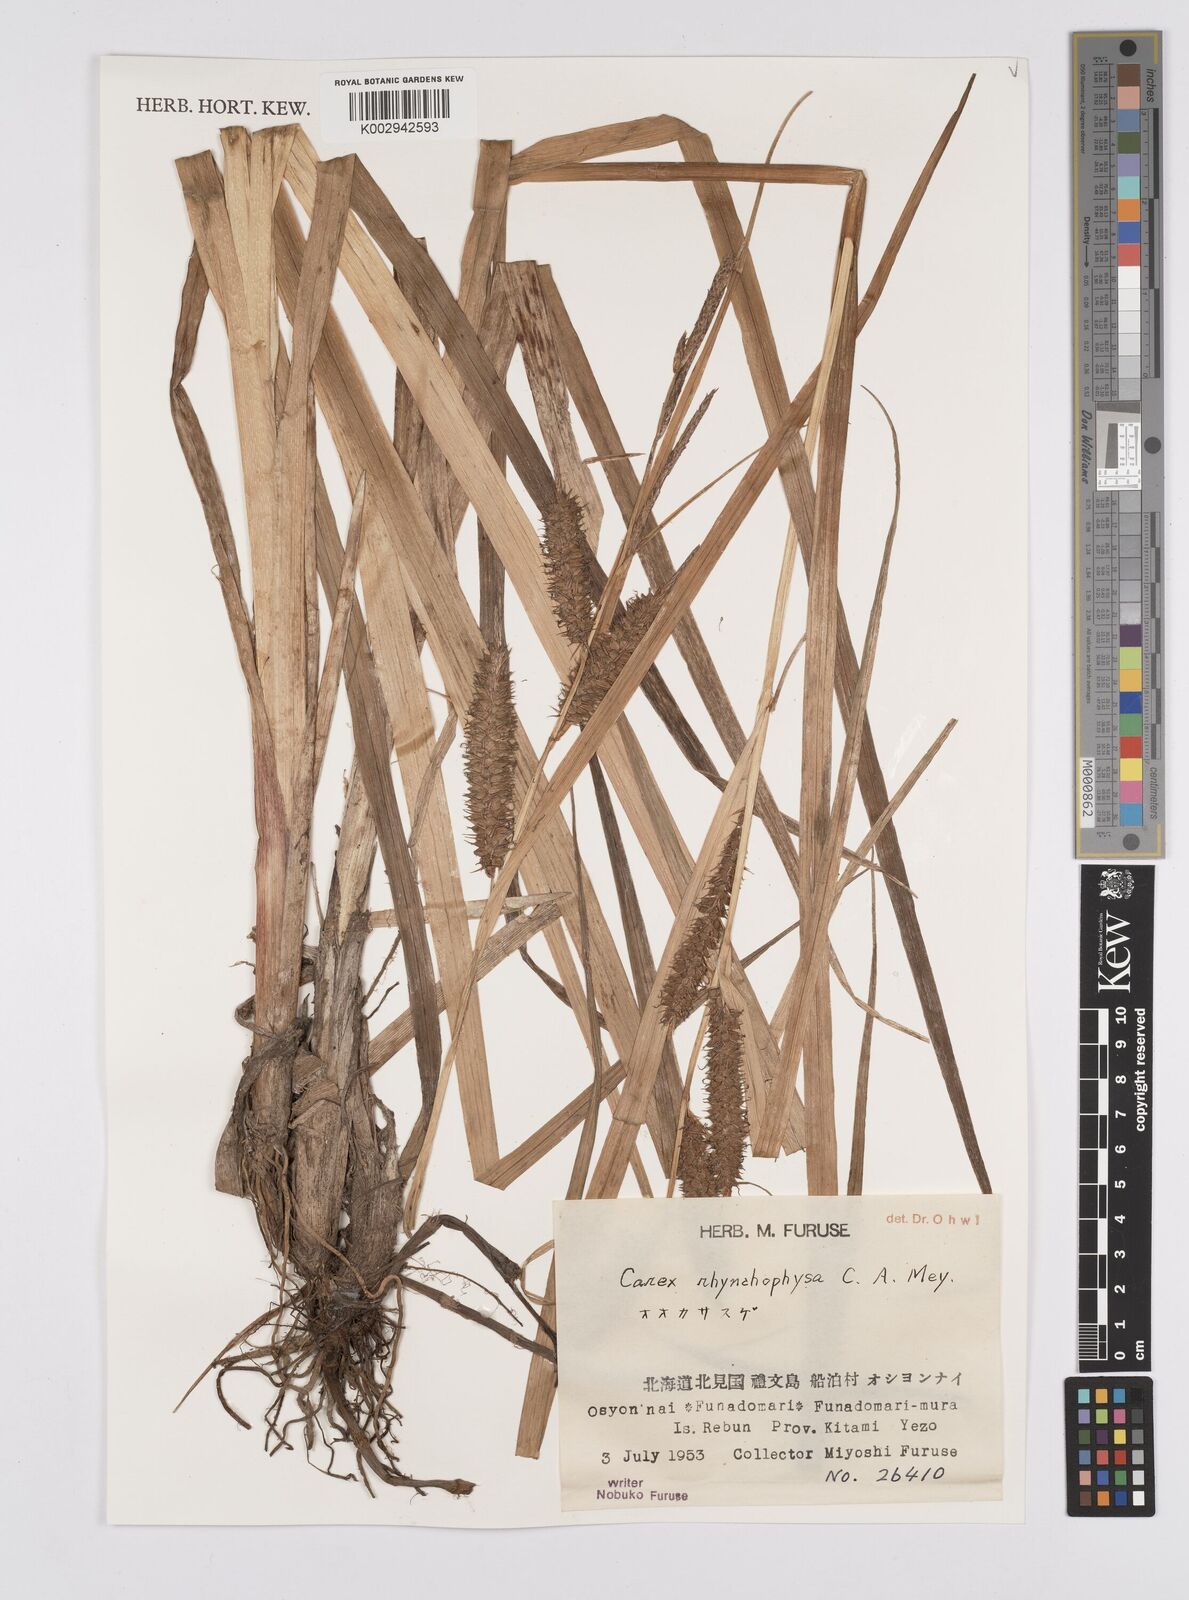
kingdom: Plantae
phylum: Tracheophyta
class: Liliopsida
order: Poales
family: Cyperaceae
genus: Carex
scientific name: Carex utriculata
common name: Beaked sedge
